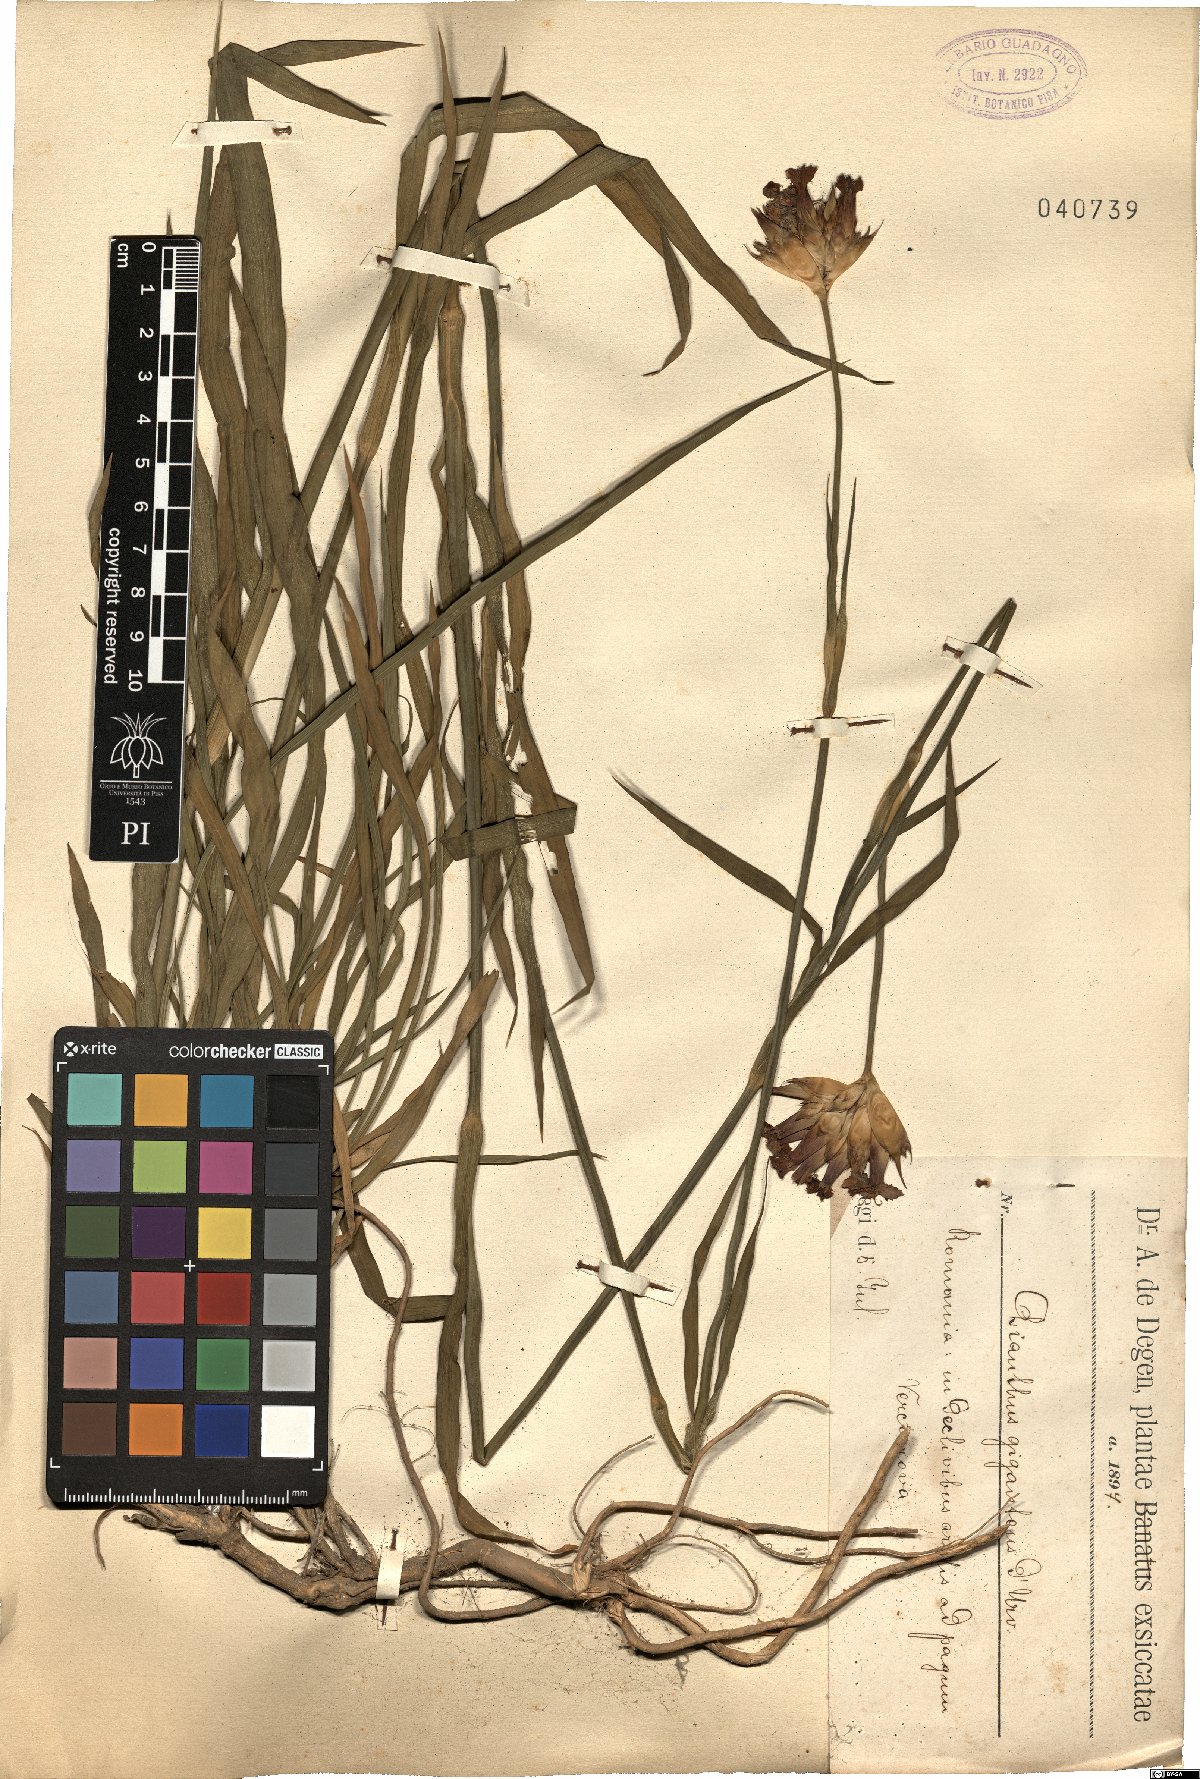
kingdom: Plantae
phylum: Tracheophyta
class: Magnoliopsida
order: Caryophyllales
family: Caryophyllaceae
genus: Dianthus
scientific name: Dianthus giganteus
